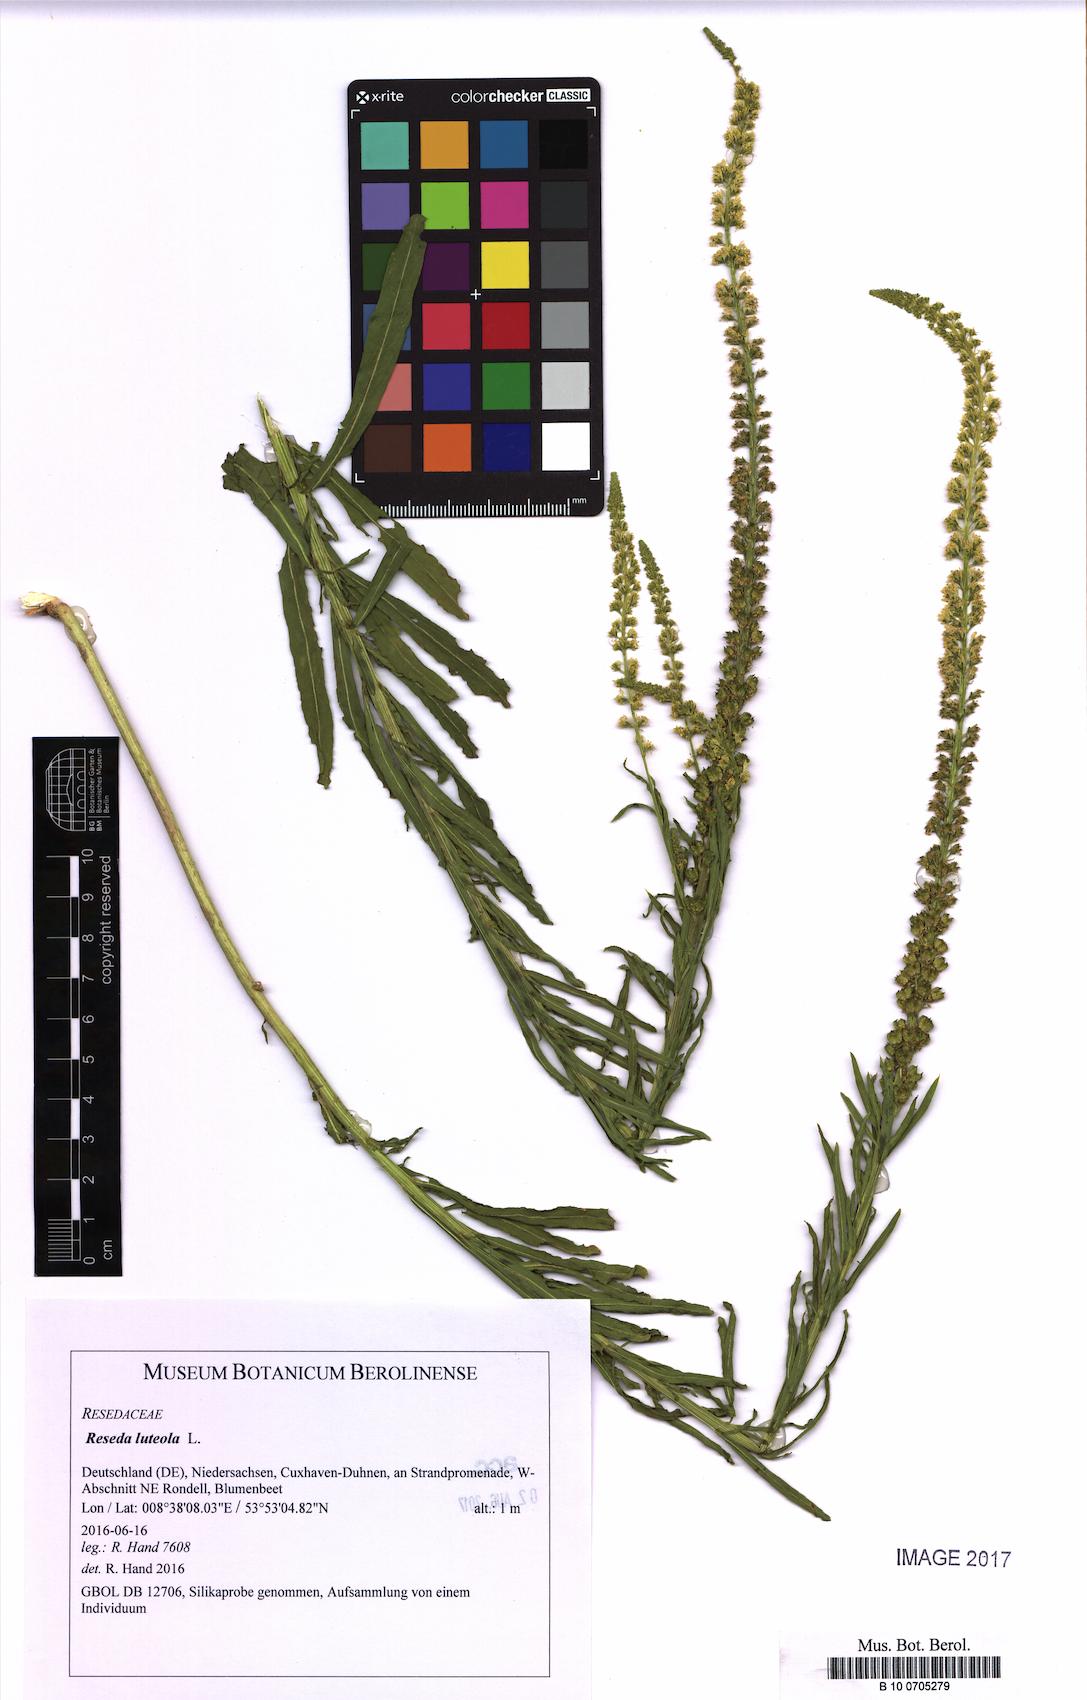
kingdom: Plantae
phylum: Tracheophyta
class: Magnoliopsida
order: Brassicales
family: Resedaceae
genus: Reseda
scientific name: Reseda luteola
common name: Weld
